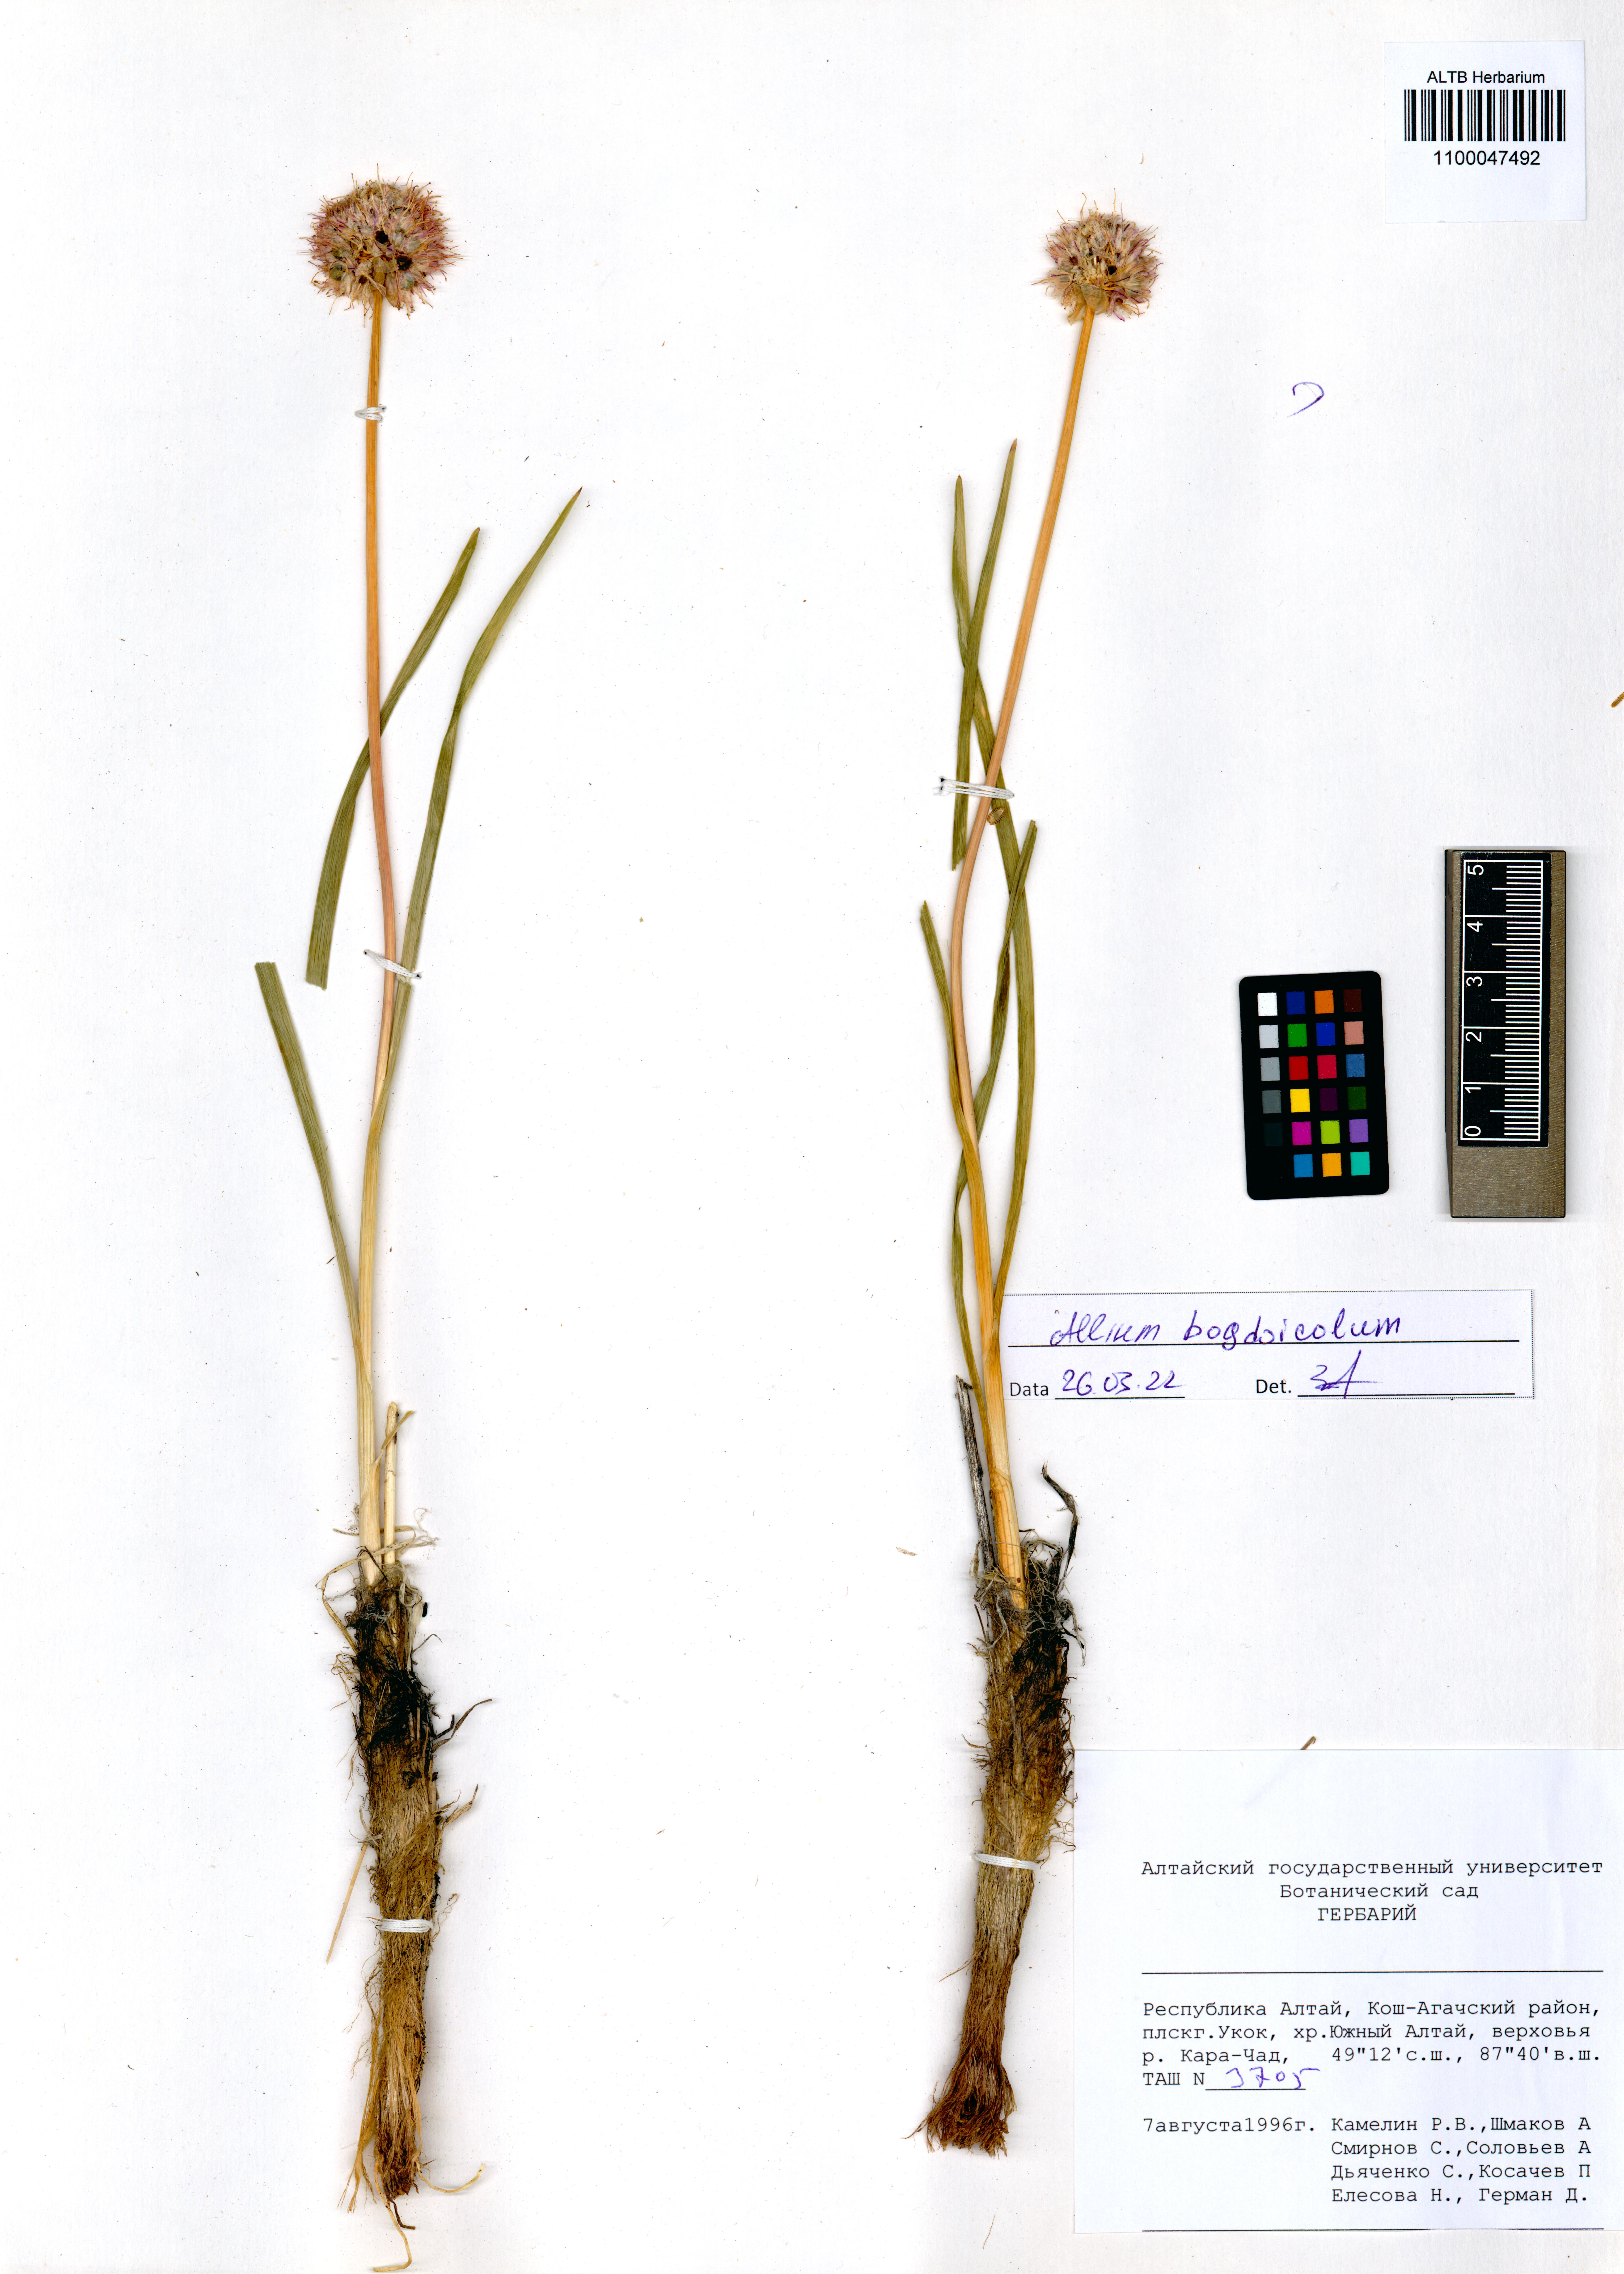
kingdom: Plantae
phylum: Tracheophyta
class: Liliopsida
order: Asparagales
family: Amaryllidaceae
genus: Allium
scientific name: Allium schrenkii
